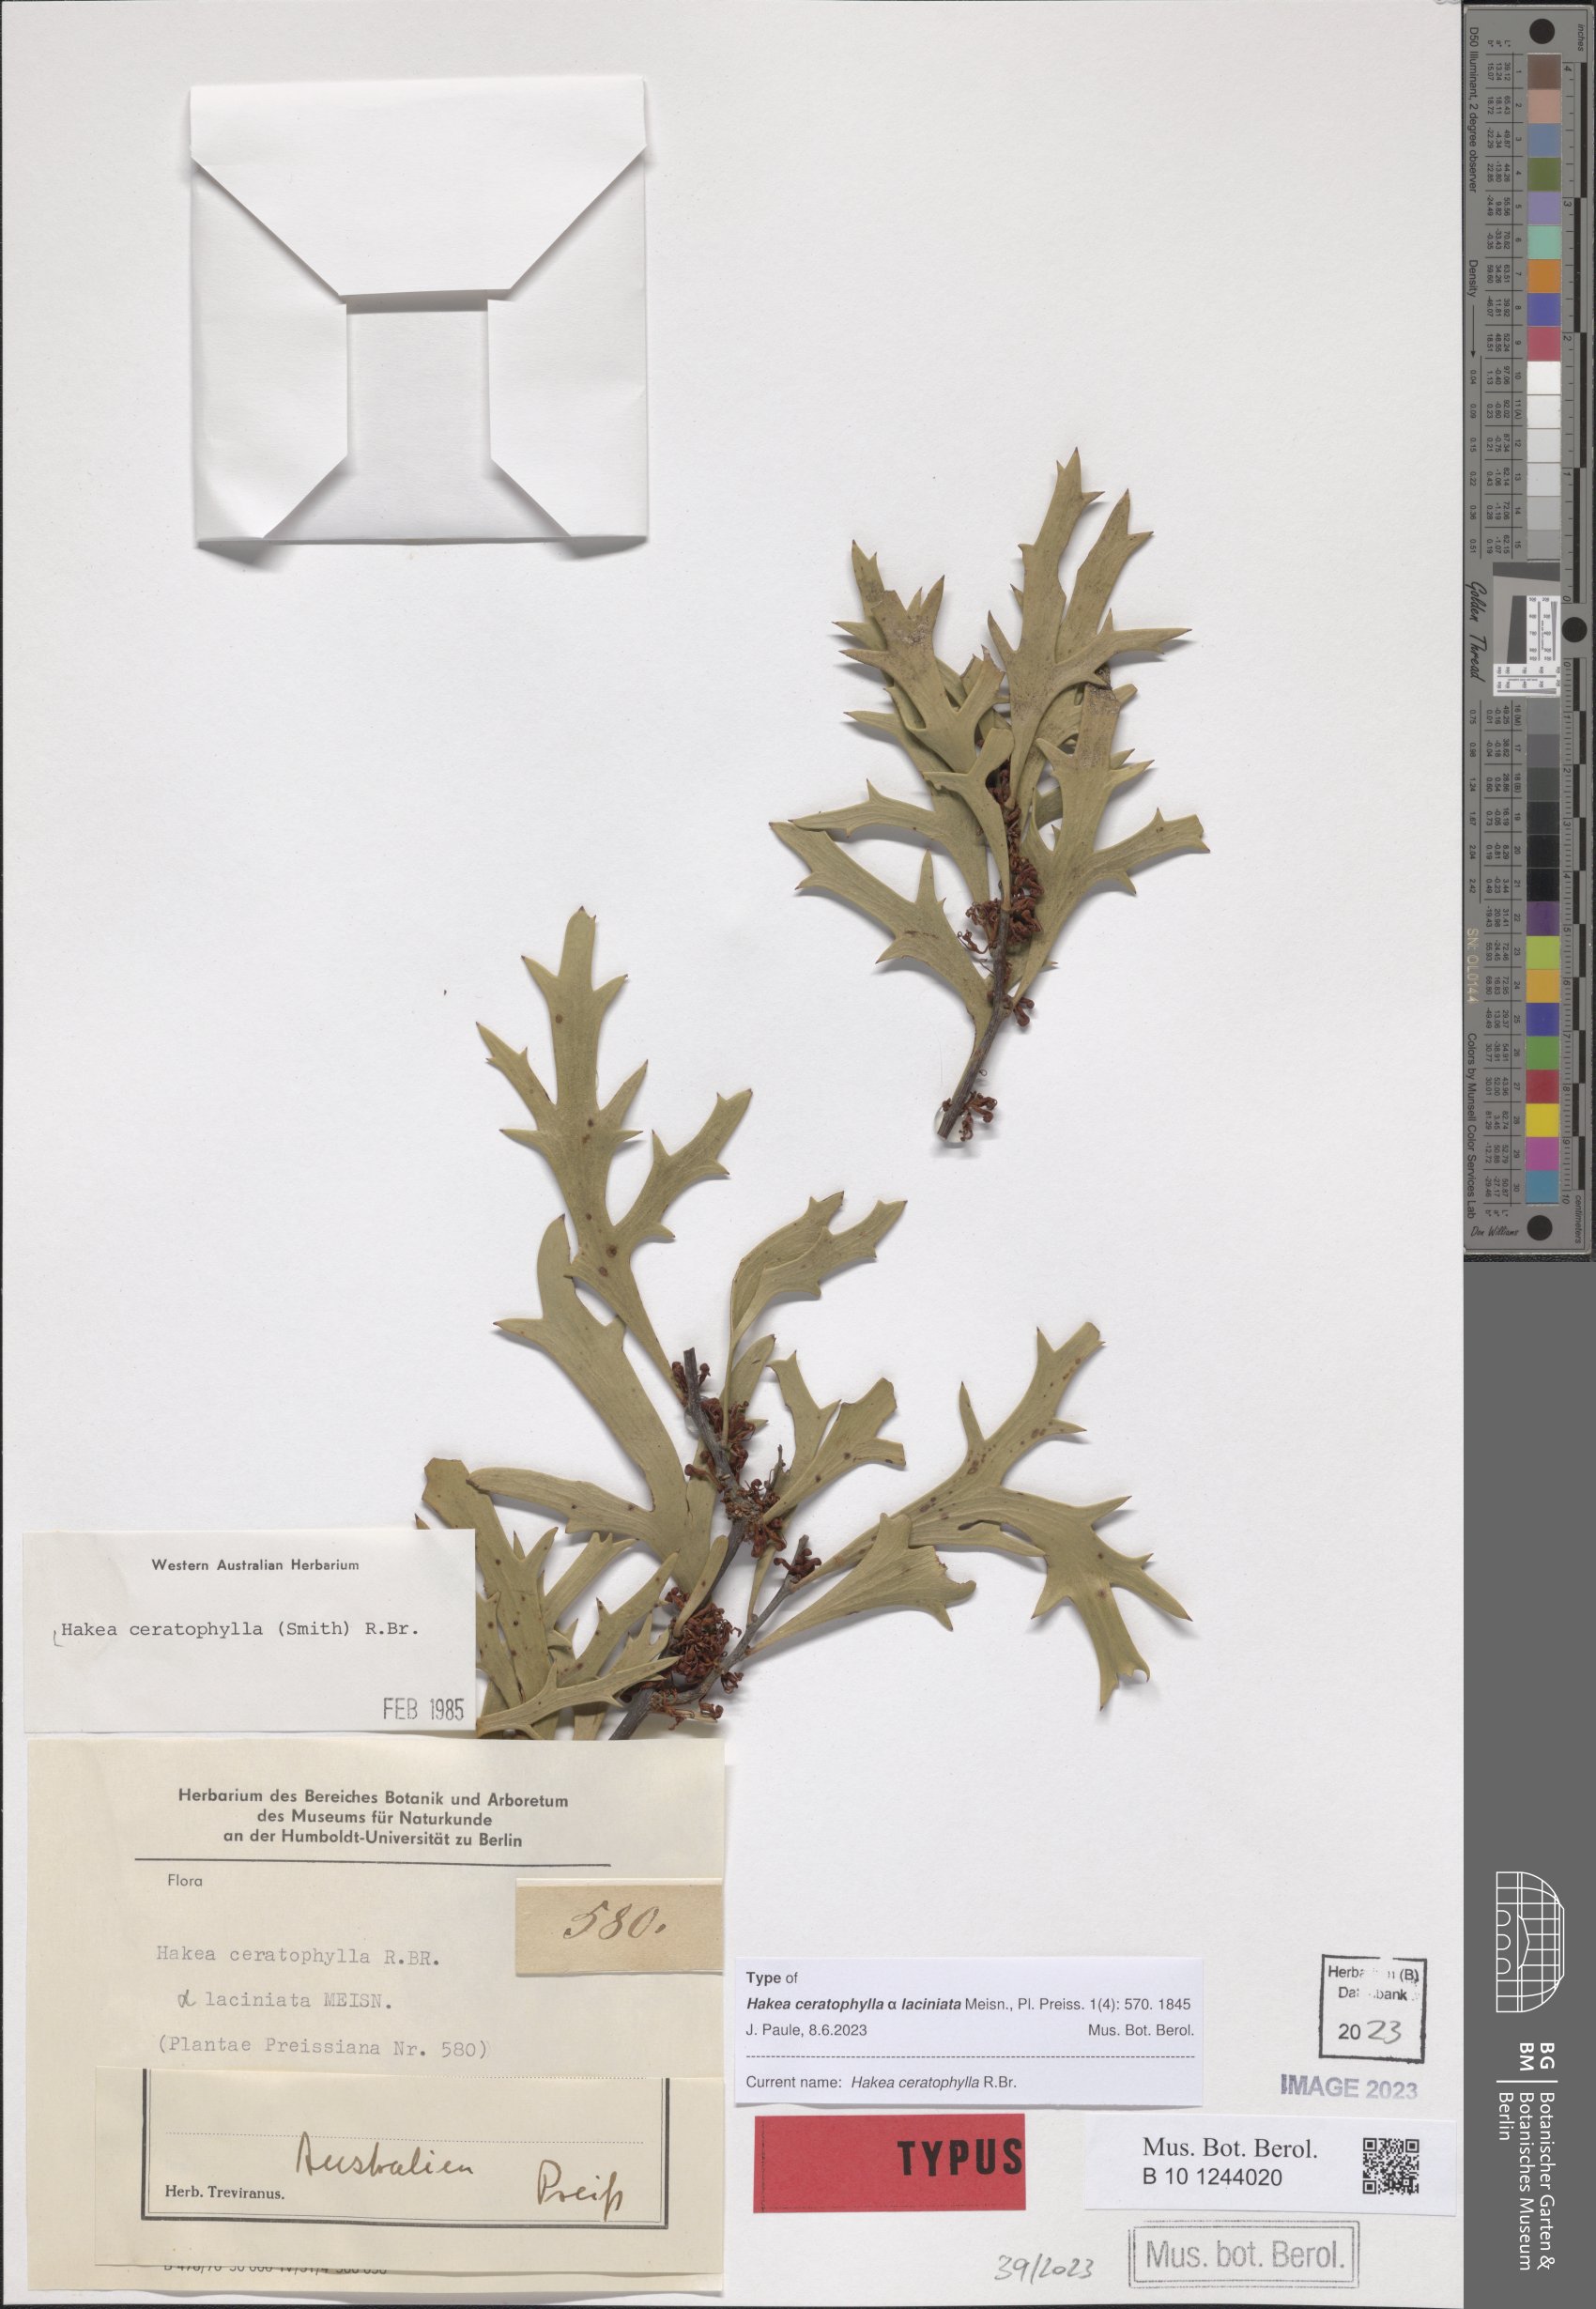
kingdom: Plantae
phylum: Tracheophyta
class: Magnoliopsida
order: Proteales
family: Proteaceae
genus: Hakea
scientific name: Hakea ceratophylla
